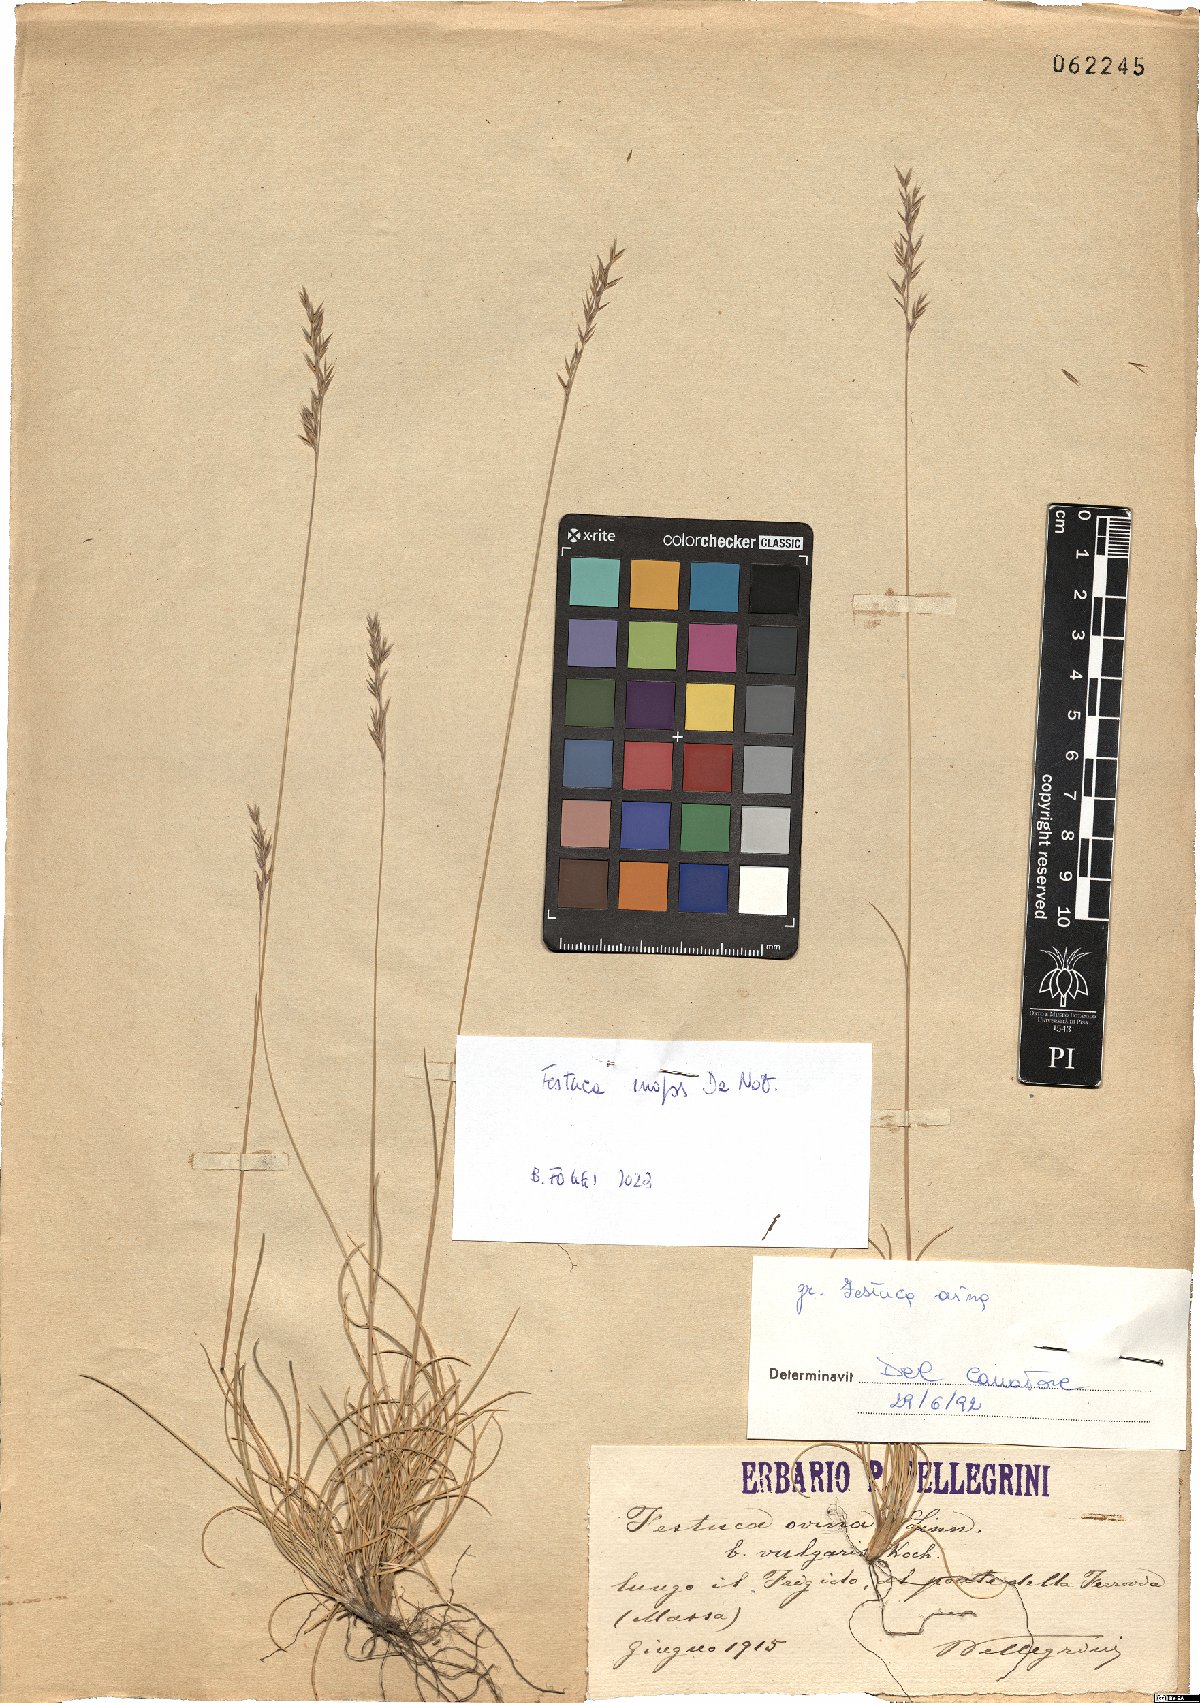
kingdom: Plantae
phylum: Tracheophyta
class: Liliopsida
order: Poales
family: Poaceae
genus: Festuca
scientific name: Festuca inops
